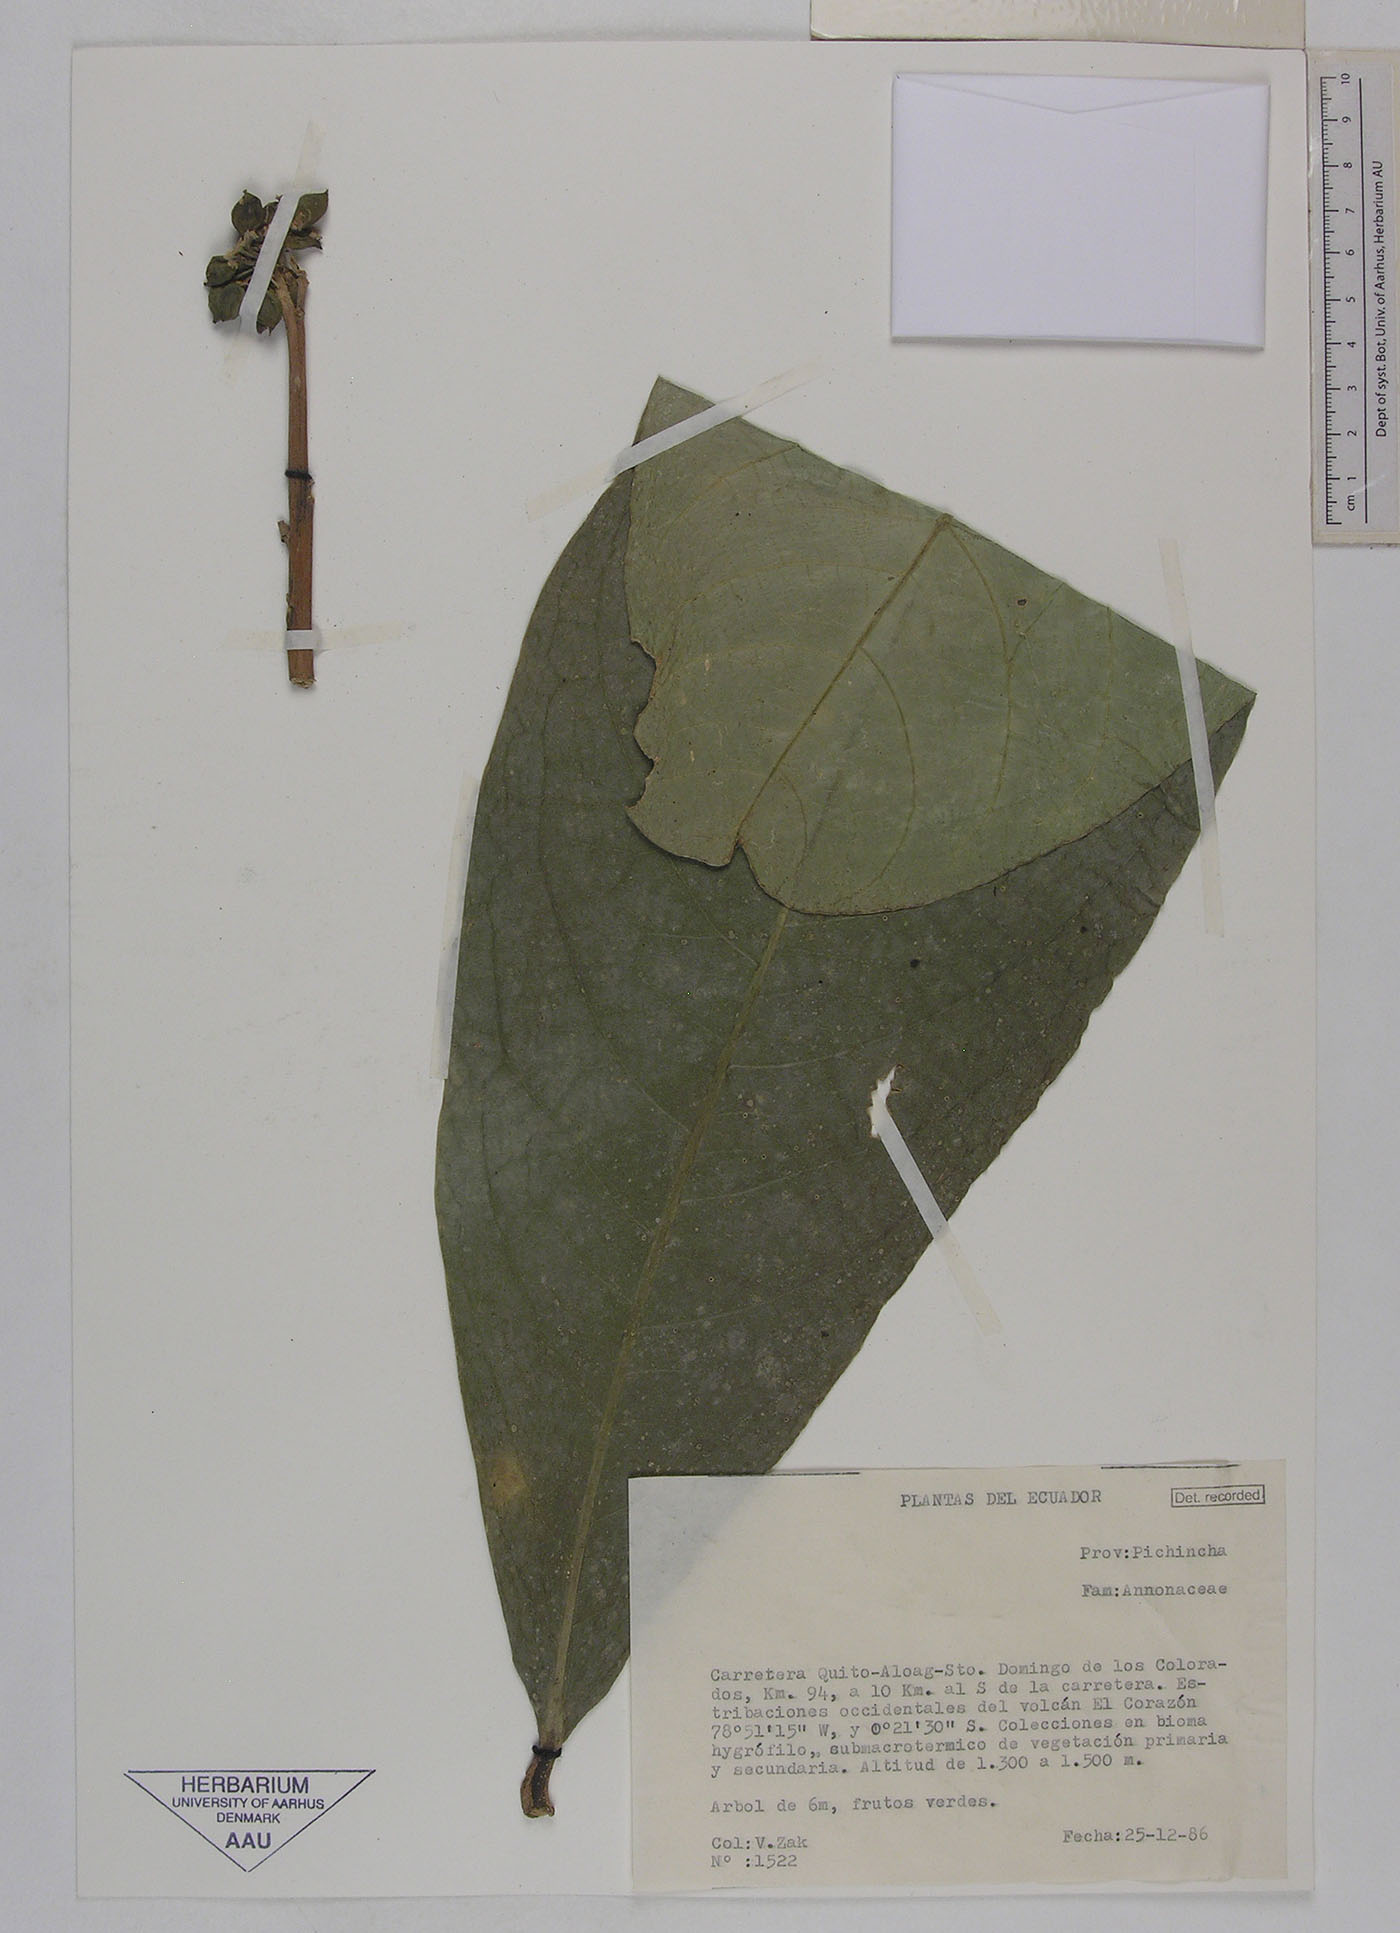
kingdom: Plantae
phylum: Tracheophyta
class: Magnoliopsida
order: Laurales
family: Monimiaceae
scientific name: Monimiaceae
